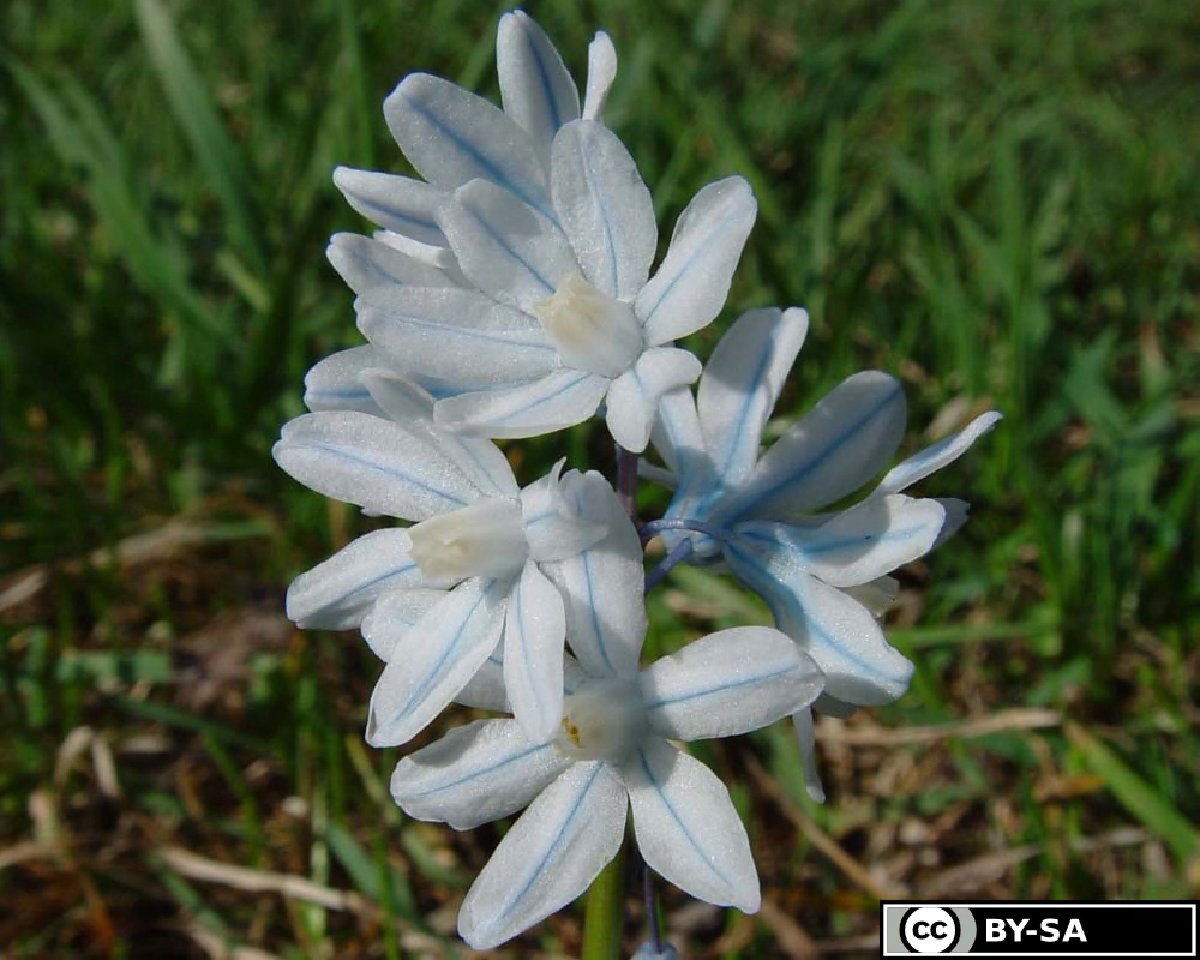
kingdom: Plantae
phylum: Tracheophyta
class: Liliopsida
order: Asparagales
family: Asparagaceae
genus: Puschkinia
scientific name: Puschkinia scilloides
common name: Striped squill
